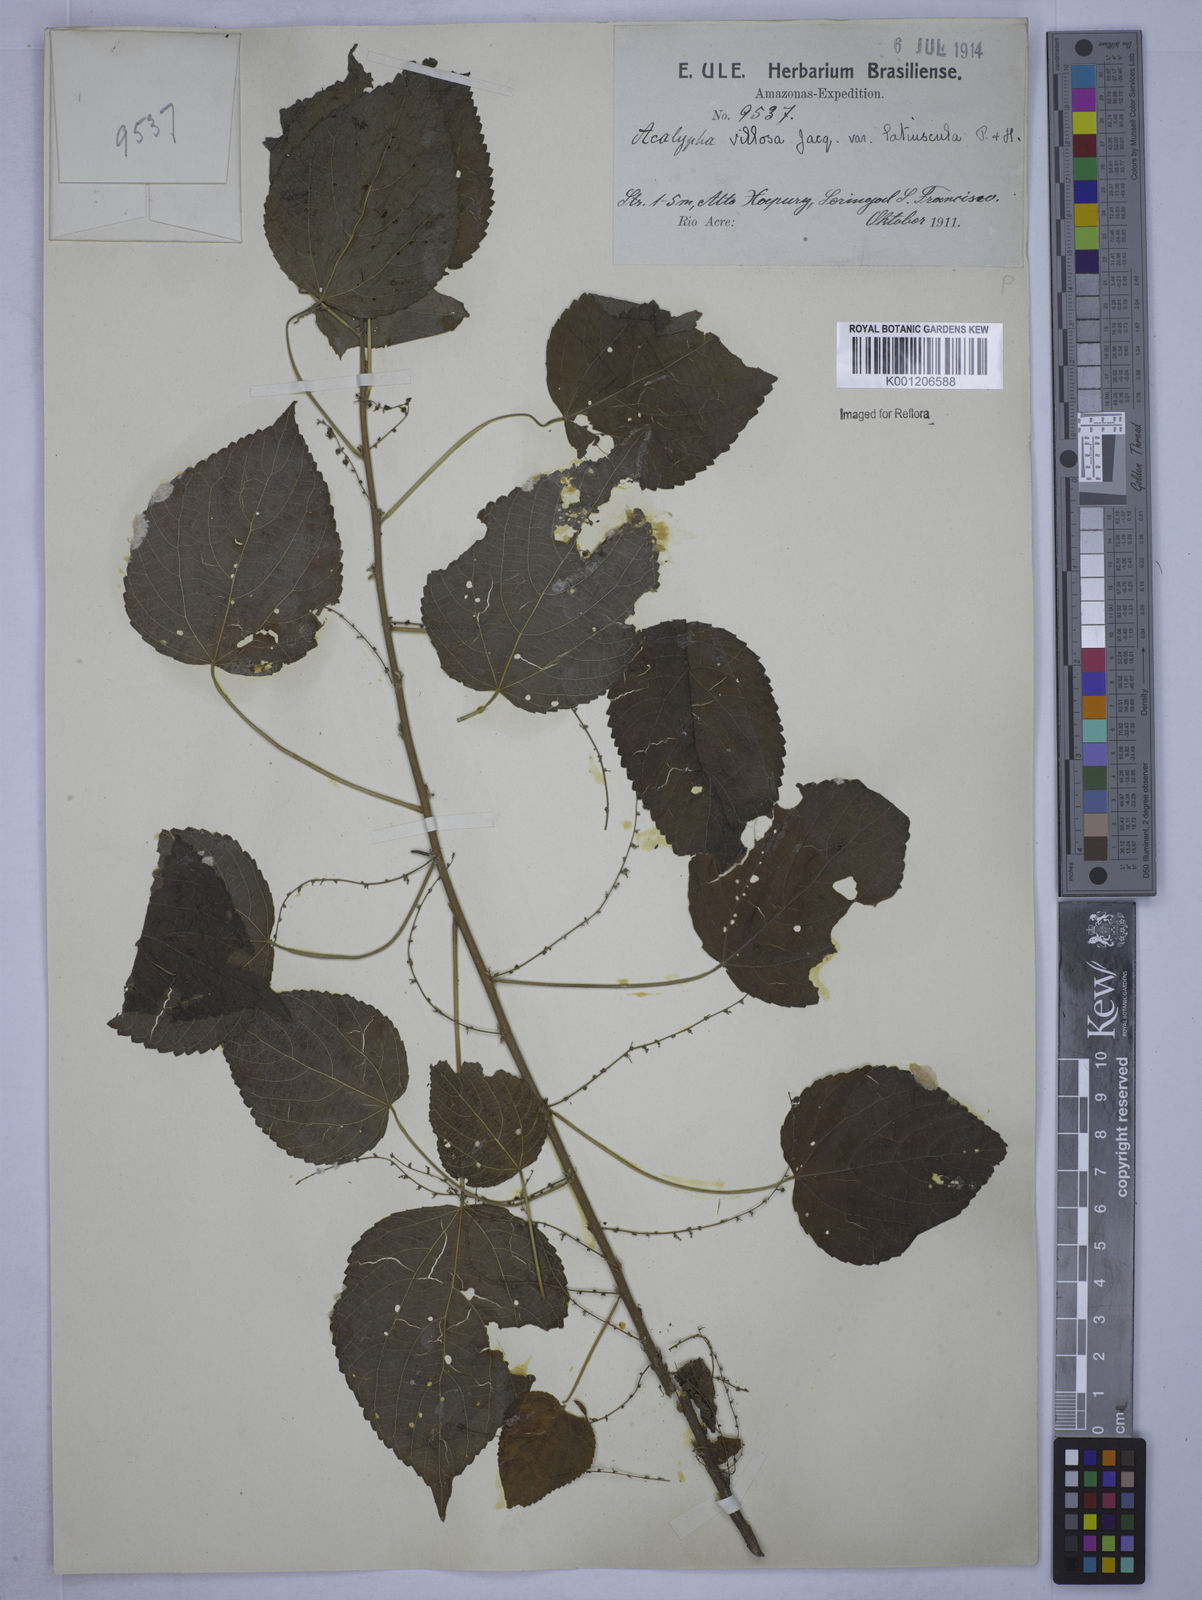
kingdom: Plantae
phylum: Tracheophyta
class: Magnoliopsida
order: Malpighiales
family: Euphorbiaceae
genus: Acalypha
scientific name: Acalypha villosa
